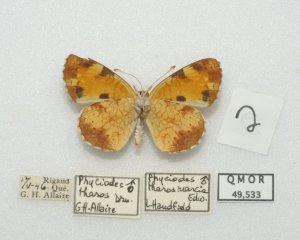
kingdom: Animalia
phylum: Arthropoda
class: Insecta
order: Lepidoptera
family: Nymphalidae
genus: Phyciodes
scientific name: Phyciodes tharos
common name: Northern Crescent
